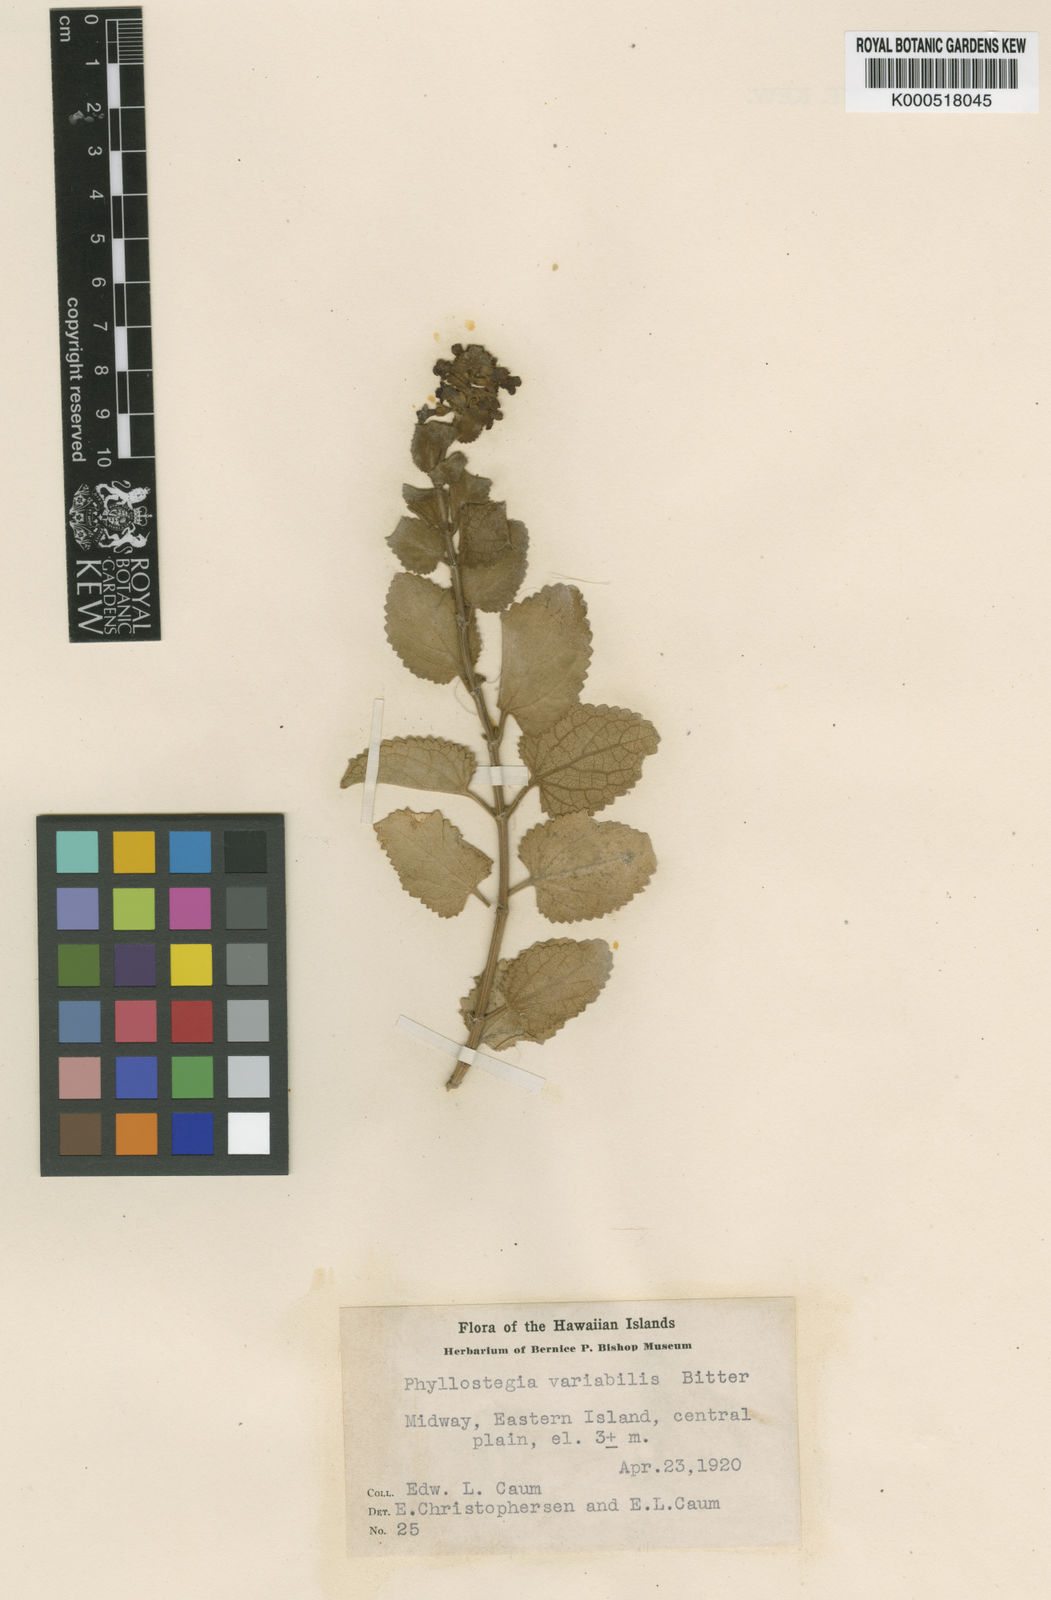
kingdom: Plantae
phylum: Tracheophyta
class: Magnoliopsida
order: Lamiales
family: Lamiaceae
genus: Phyllostegia
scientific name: Phyllostegia variabilis
